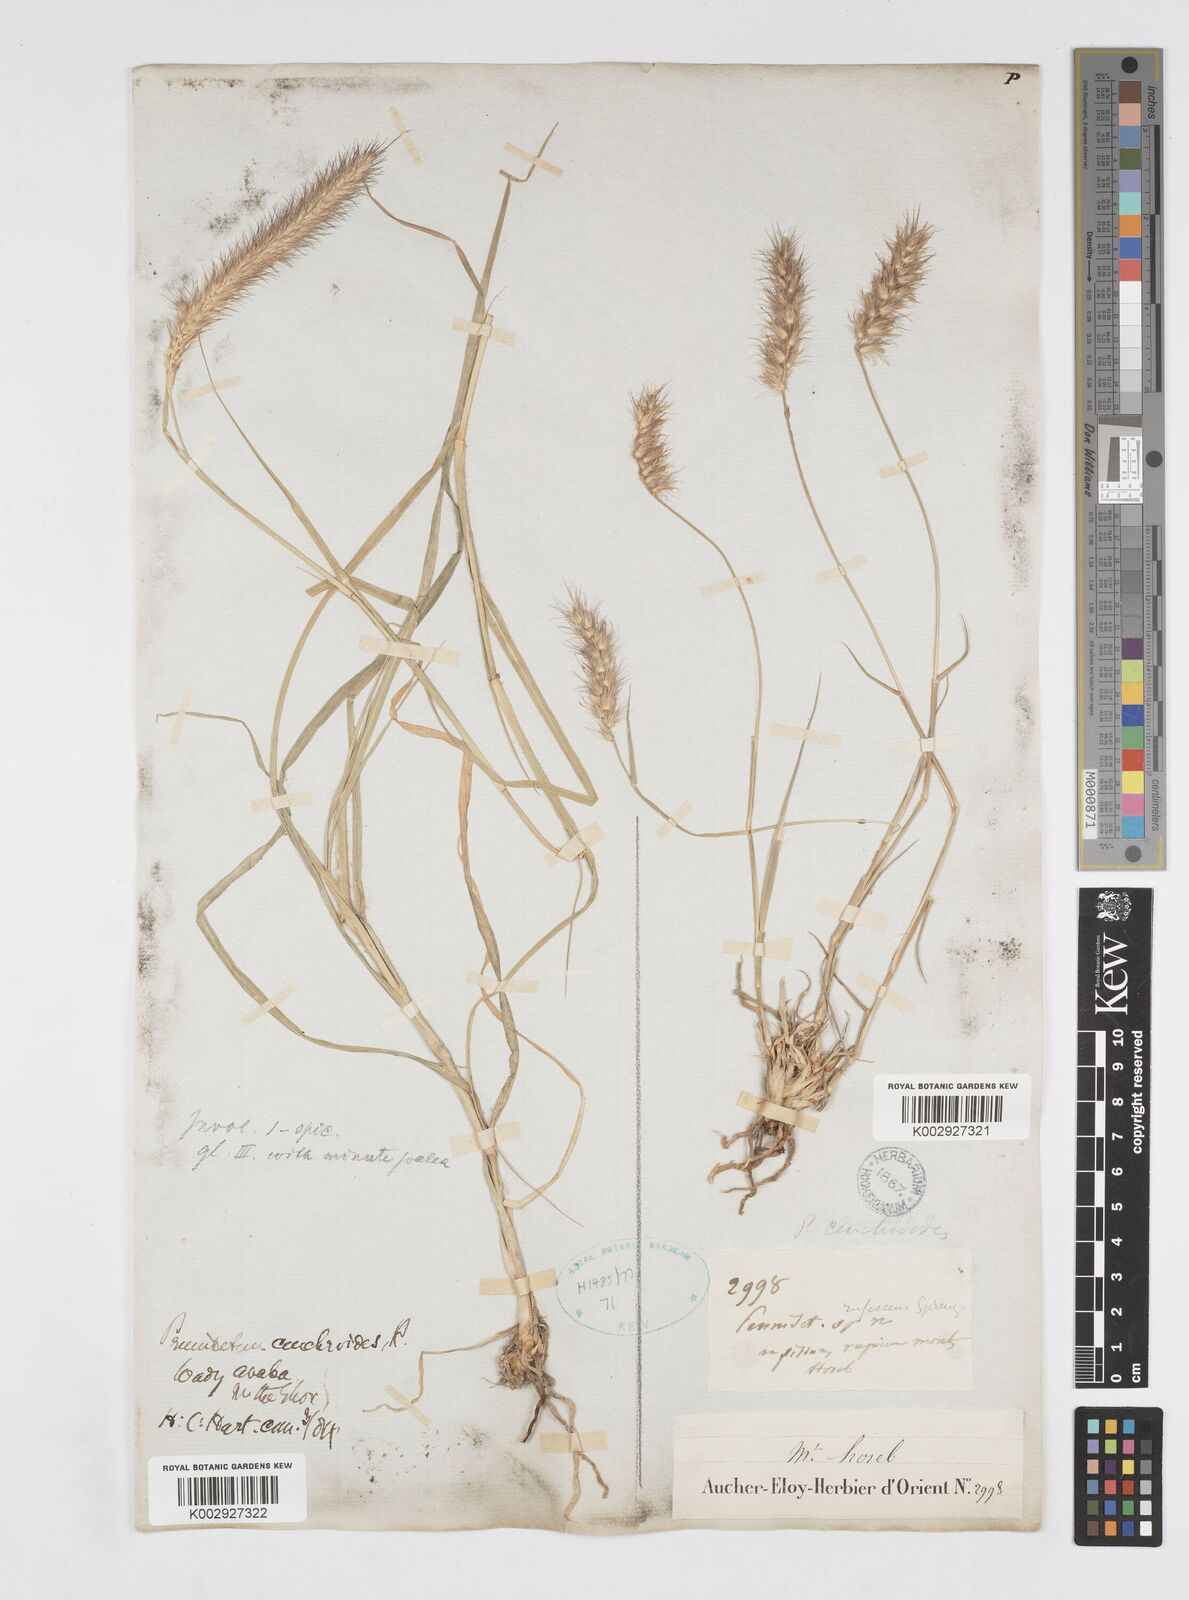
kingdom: Plantae
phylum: Tracheophyta
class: Liliopsida
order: Poales
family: Poaceae
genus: Cenchrus
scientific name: Cenchrus ciliaris
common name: Buffelgrass
